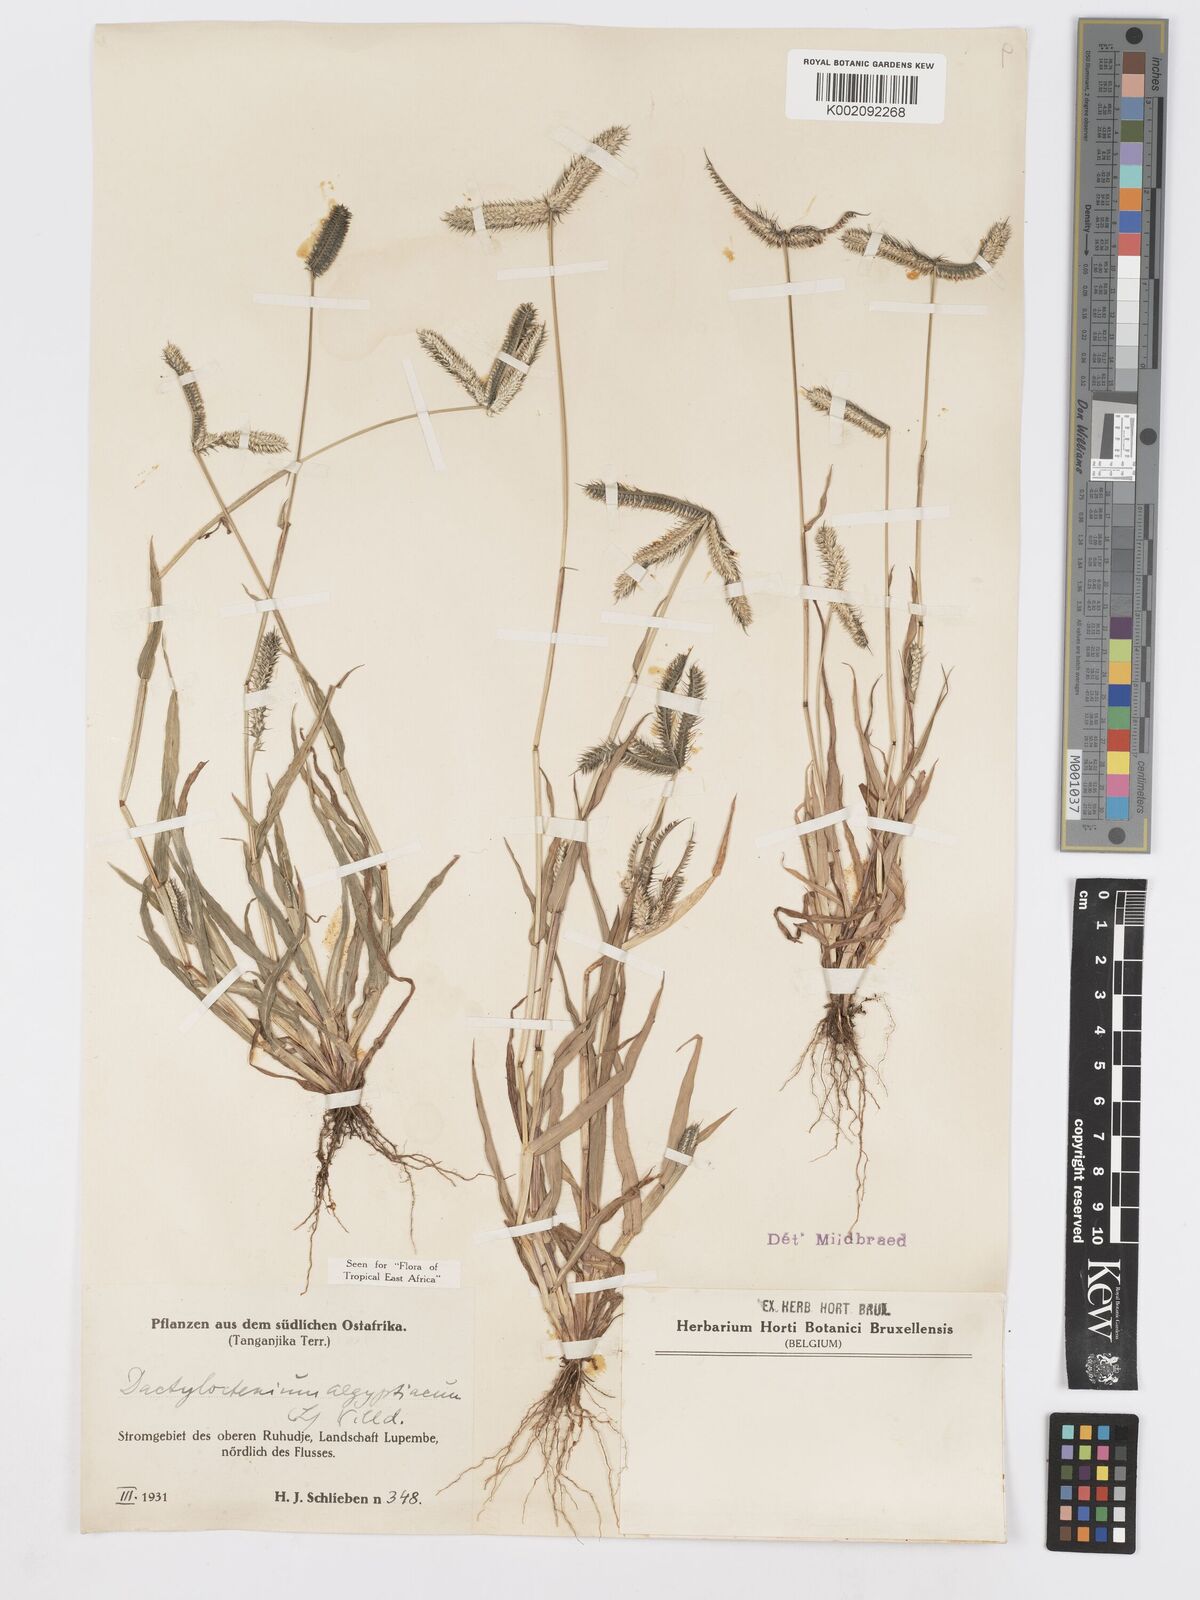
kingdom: Plantae
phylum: Tracheophyta
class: Liliopsida
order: Poales
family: Poaceae
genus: Dactyloctenium
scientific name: Dactyloctenium aegyptium
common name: Egyptian grass
